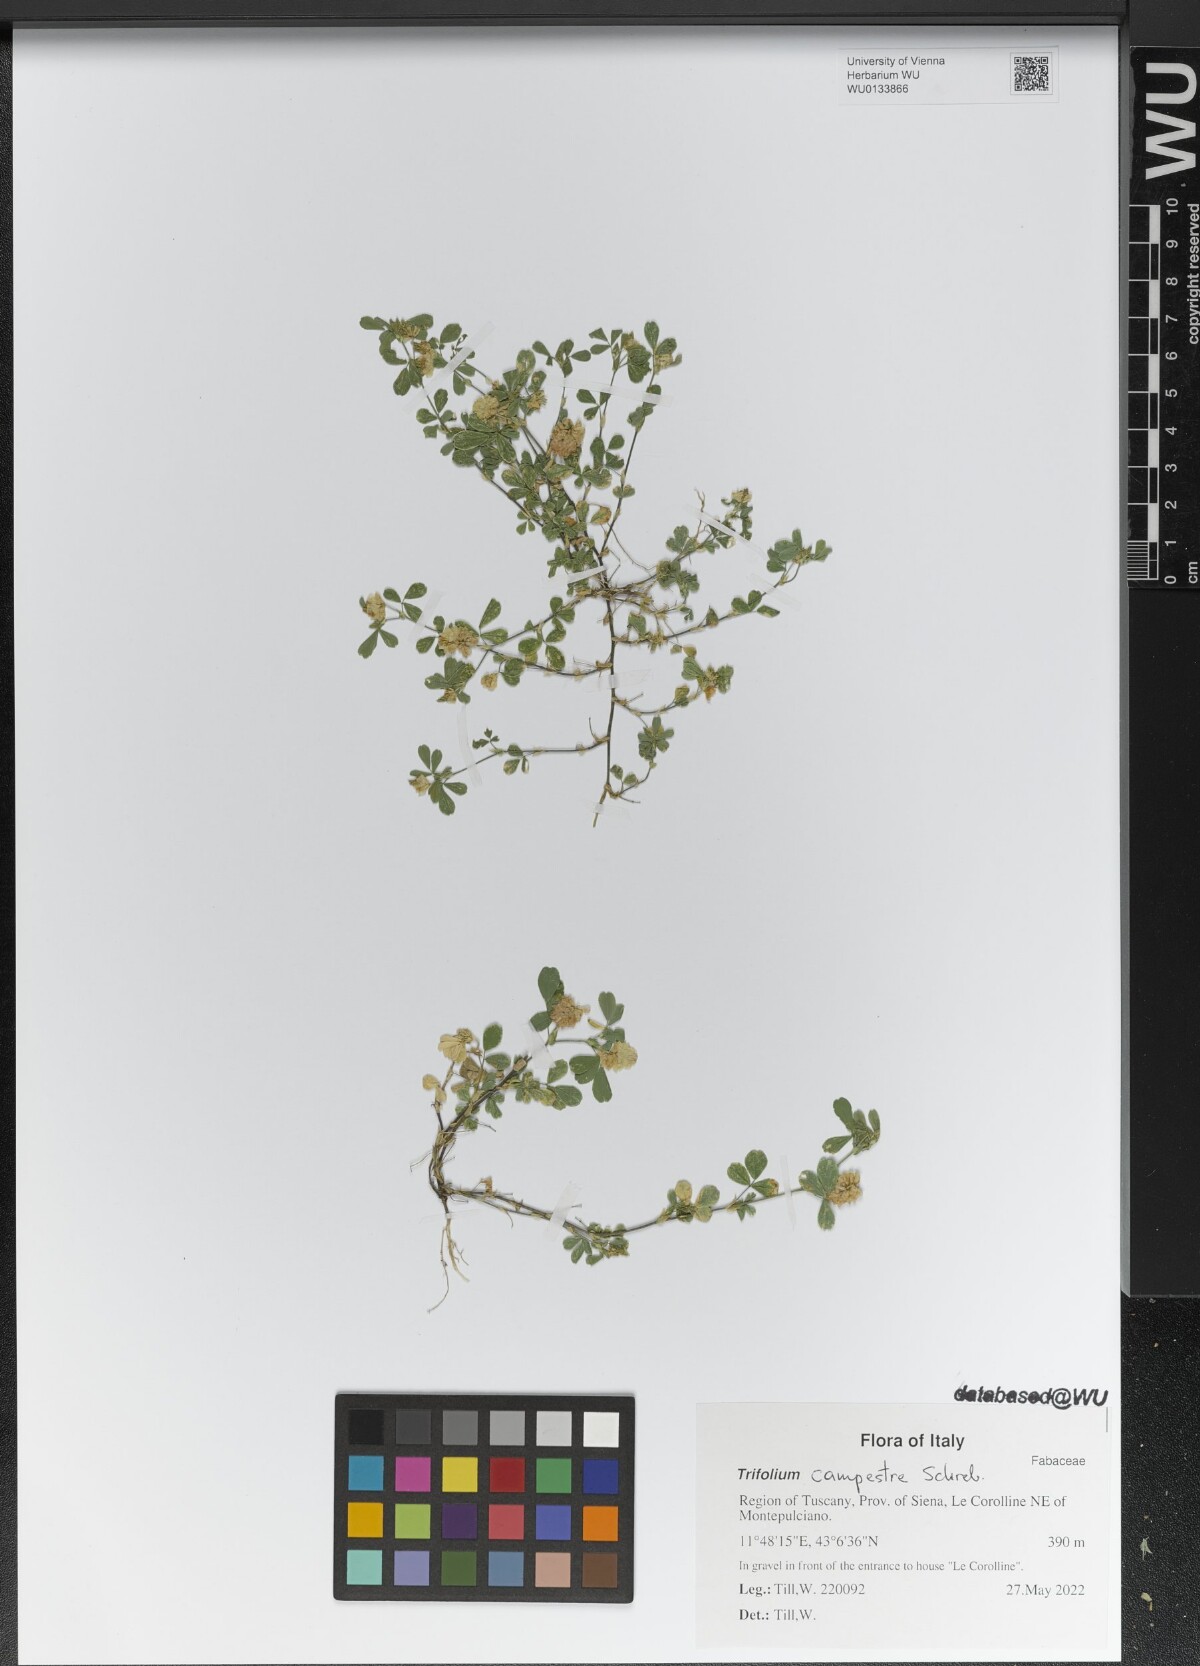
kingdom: Plantae
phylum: Tracheophyta
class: Magnoliopsida
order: Fabales
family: Fabaceae
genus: Trifolium
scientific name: Trifolium campestre
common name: Field clover
